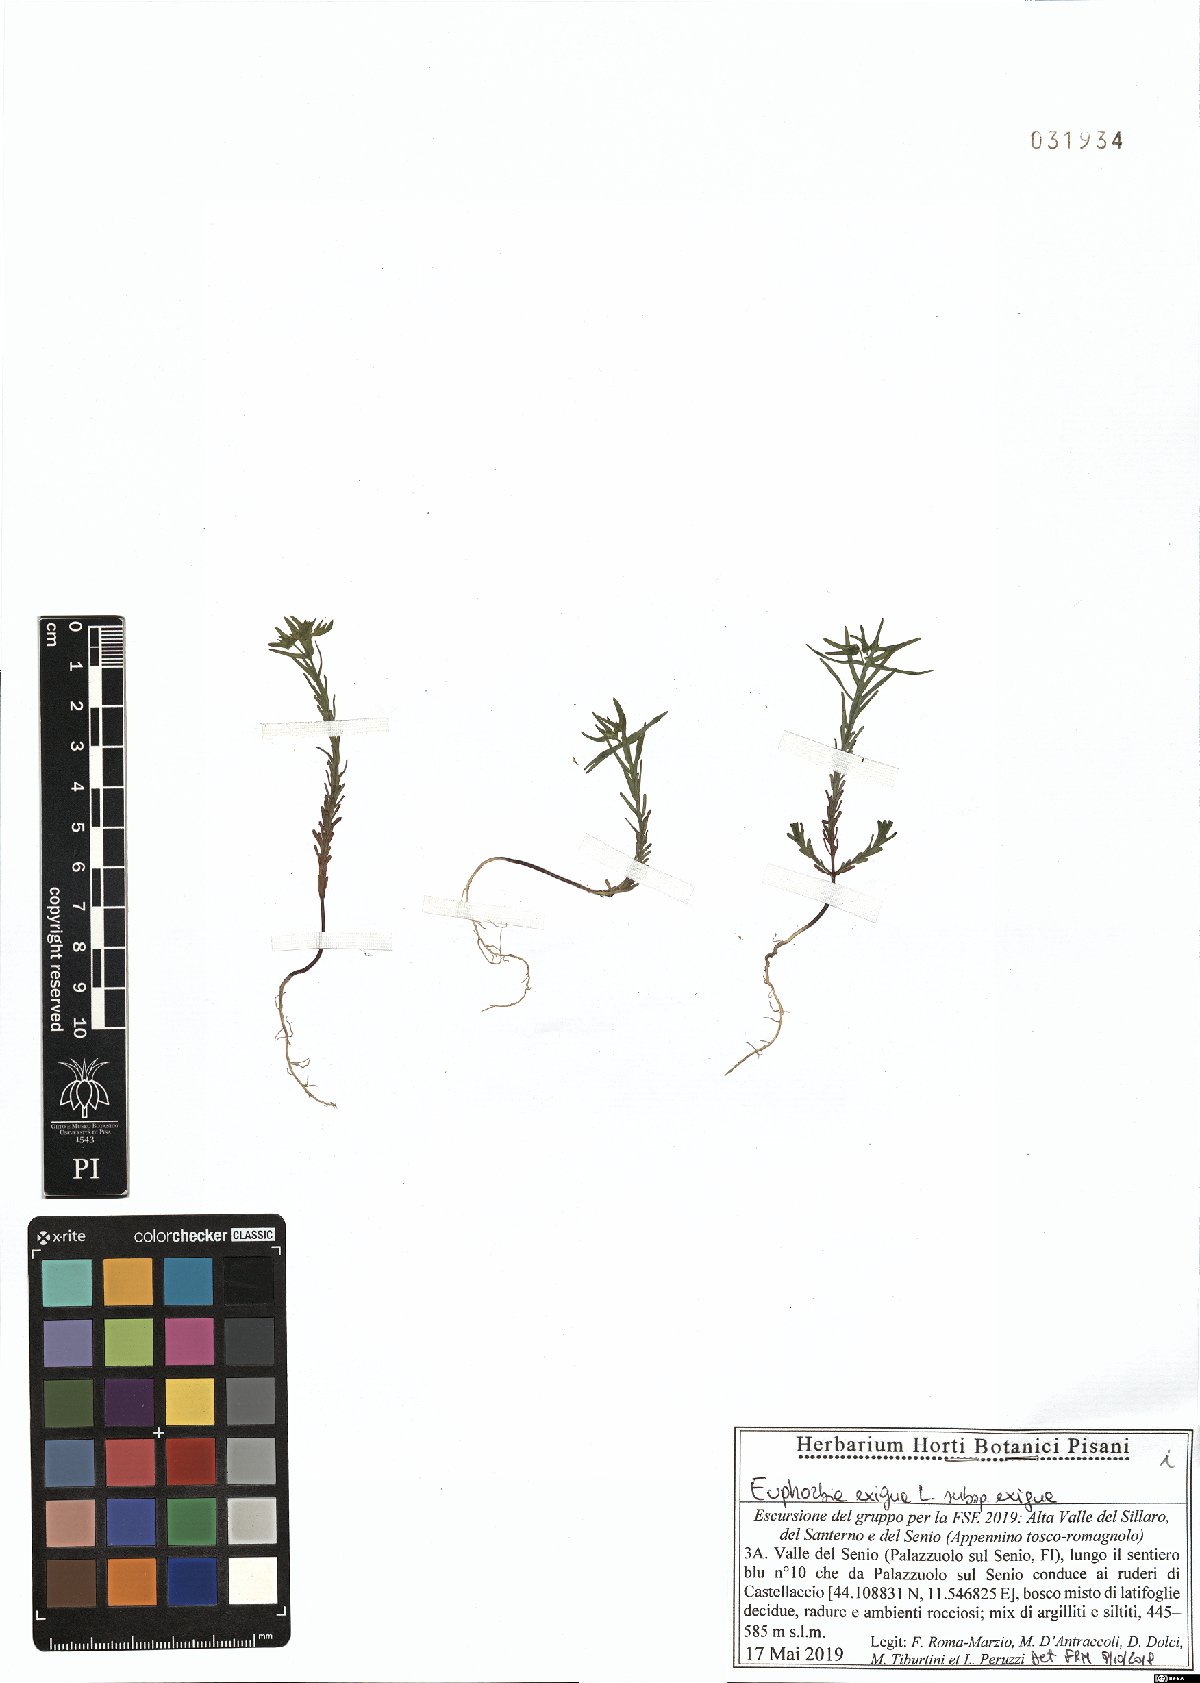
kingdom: Plantae
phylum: Tracheophyta
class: Magnoliopsida
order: Malpighiales
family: Euphorbiaceae
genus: Euphorbia
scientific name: Euphorbia exigua
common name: Dwarf spurge
